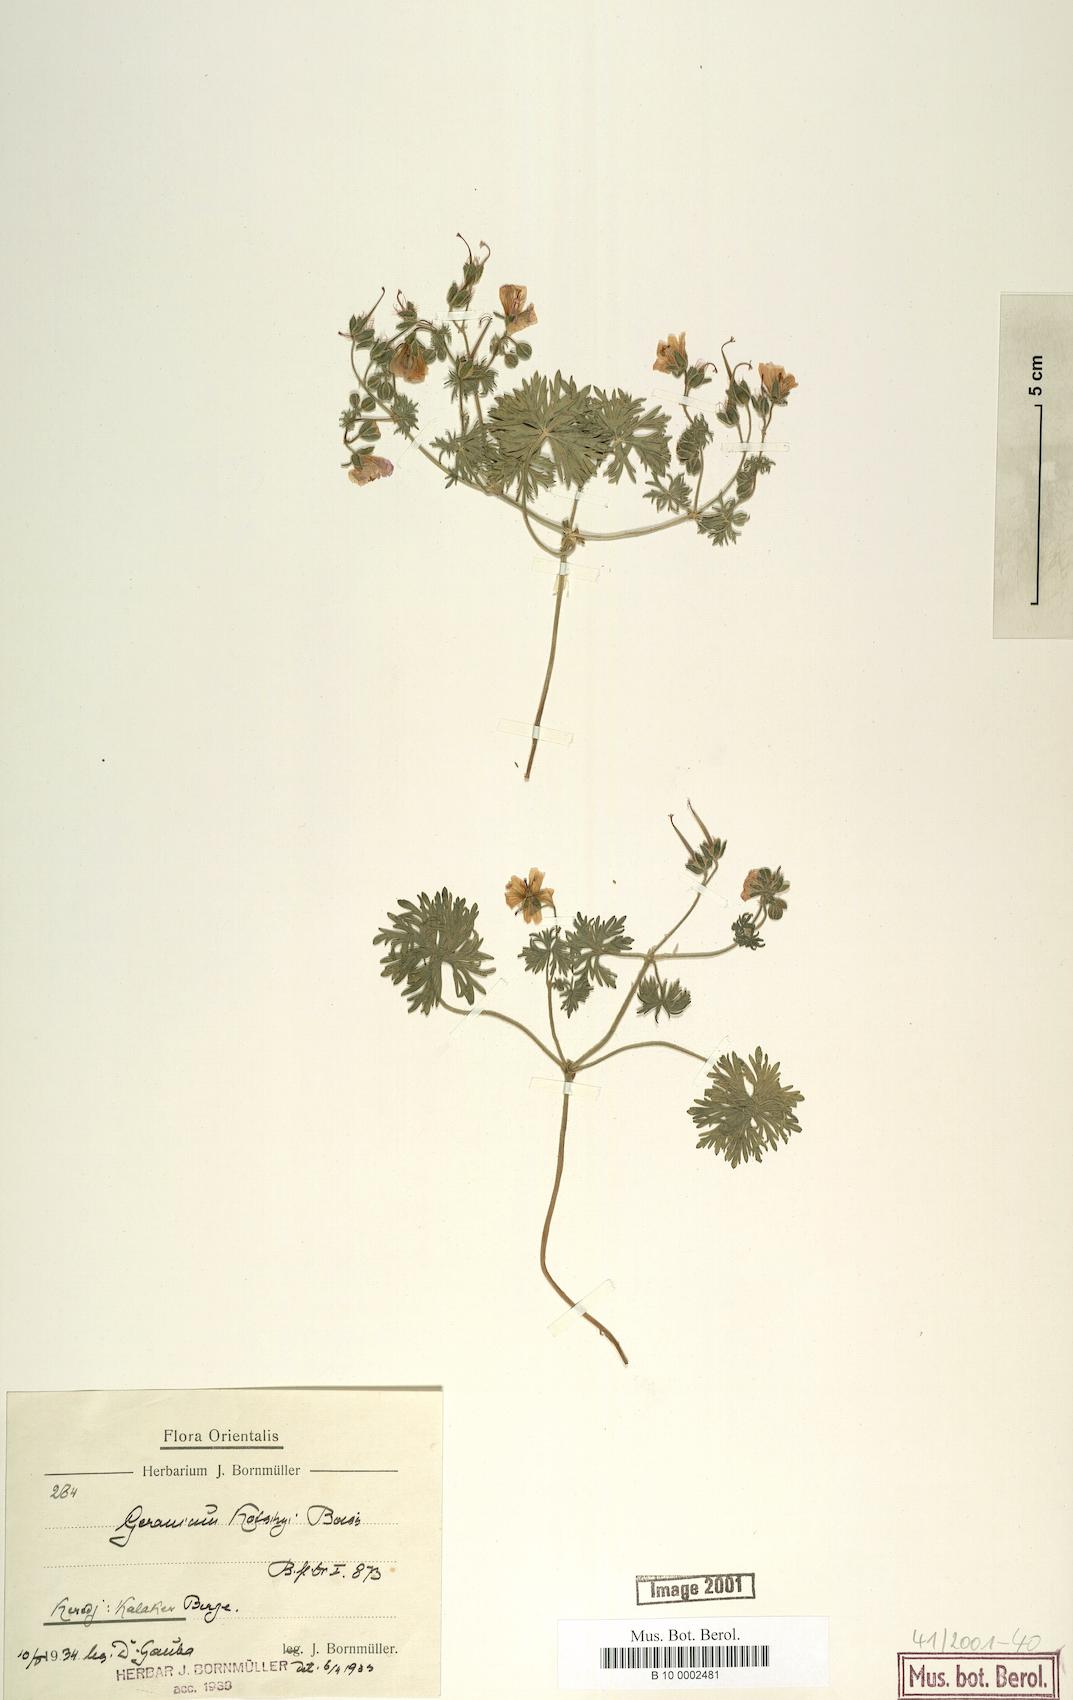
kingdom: Plantae
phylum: Tracheophyta
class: Magnoliopsida
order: Geraniales
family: Geraniaceae
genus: Geranium
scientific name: Geranium kotschyi
